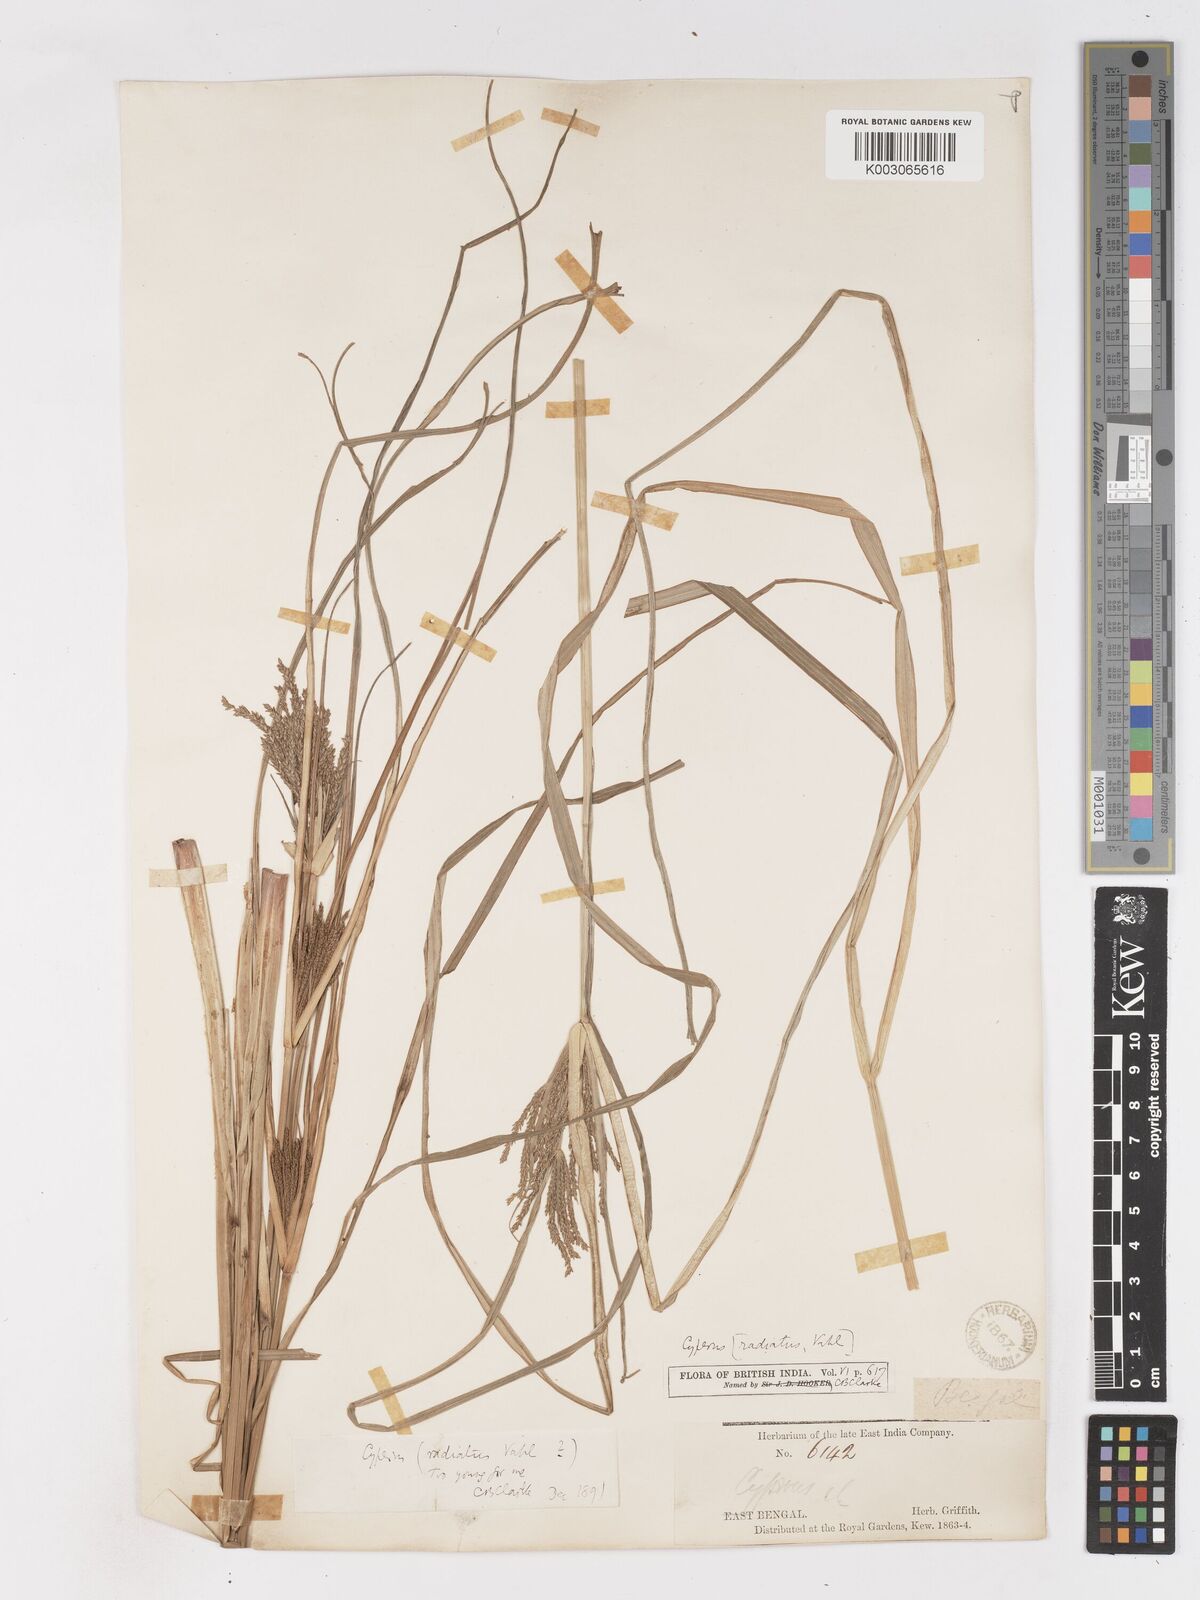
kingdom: Plantae
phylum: Tracheophyta
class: Liliopsida
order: Poales
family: Cyperaceae
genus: Cyperus
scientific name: Cyperus imbricatus
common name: Shingle flatsedge
